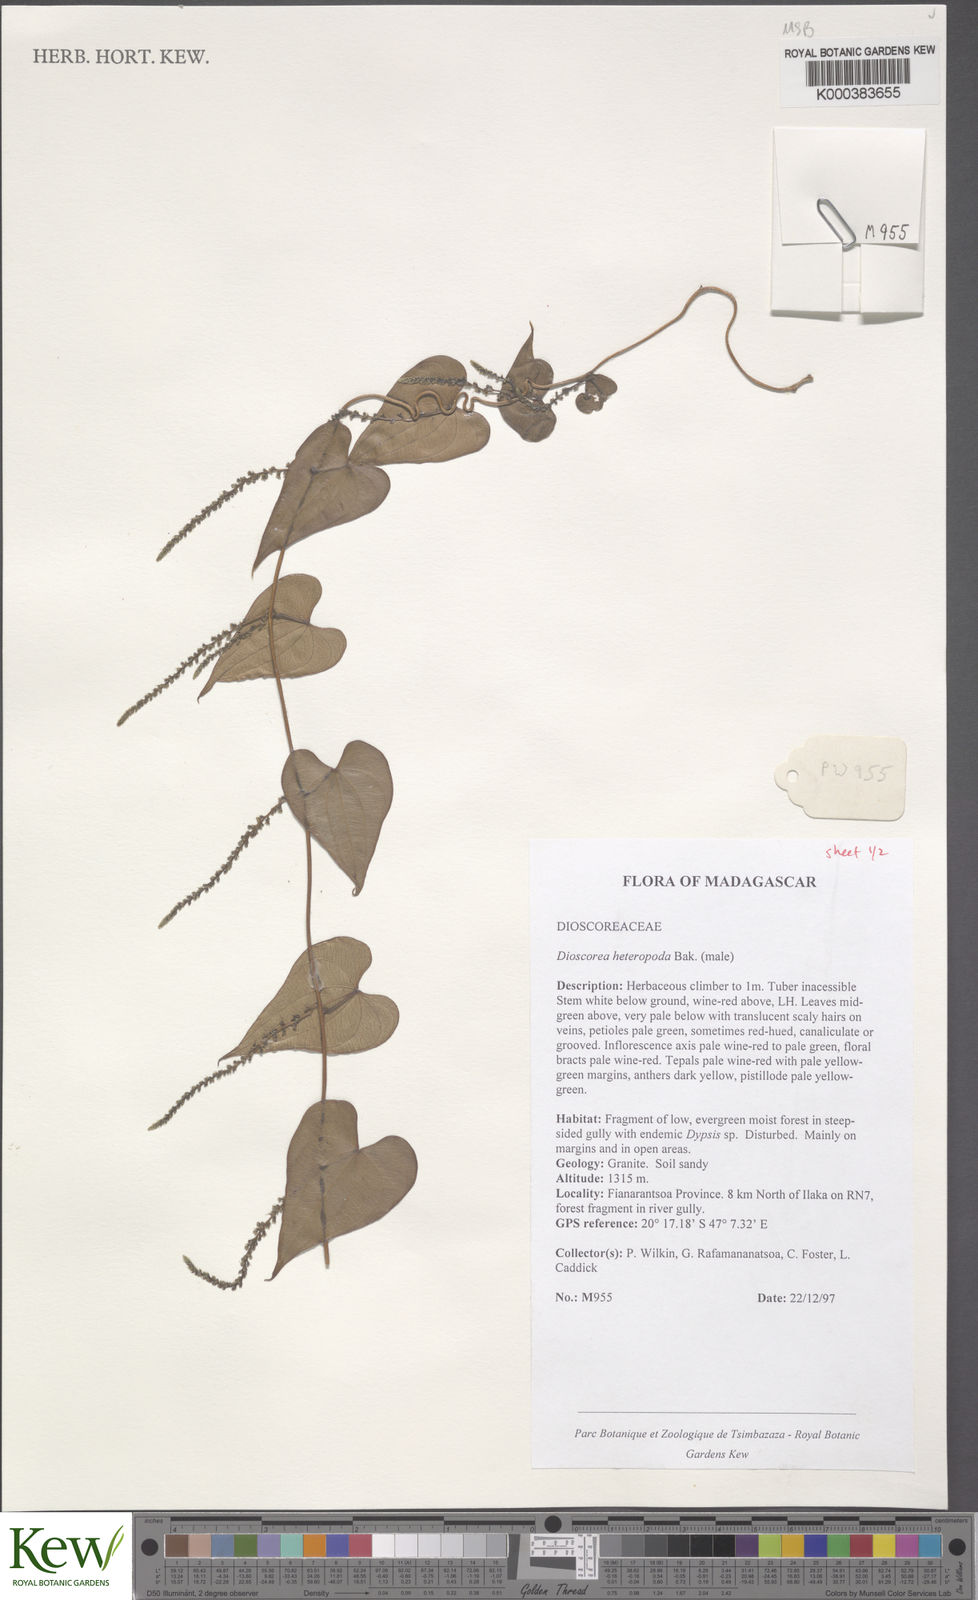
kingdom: Plantae
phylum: Tracheophyta
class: Liliopsida
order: Dioscoreales
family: Dioscoreaceae
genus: Dioscorea
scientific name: Dioscorea heteropoda
